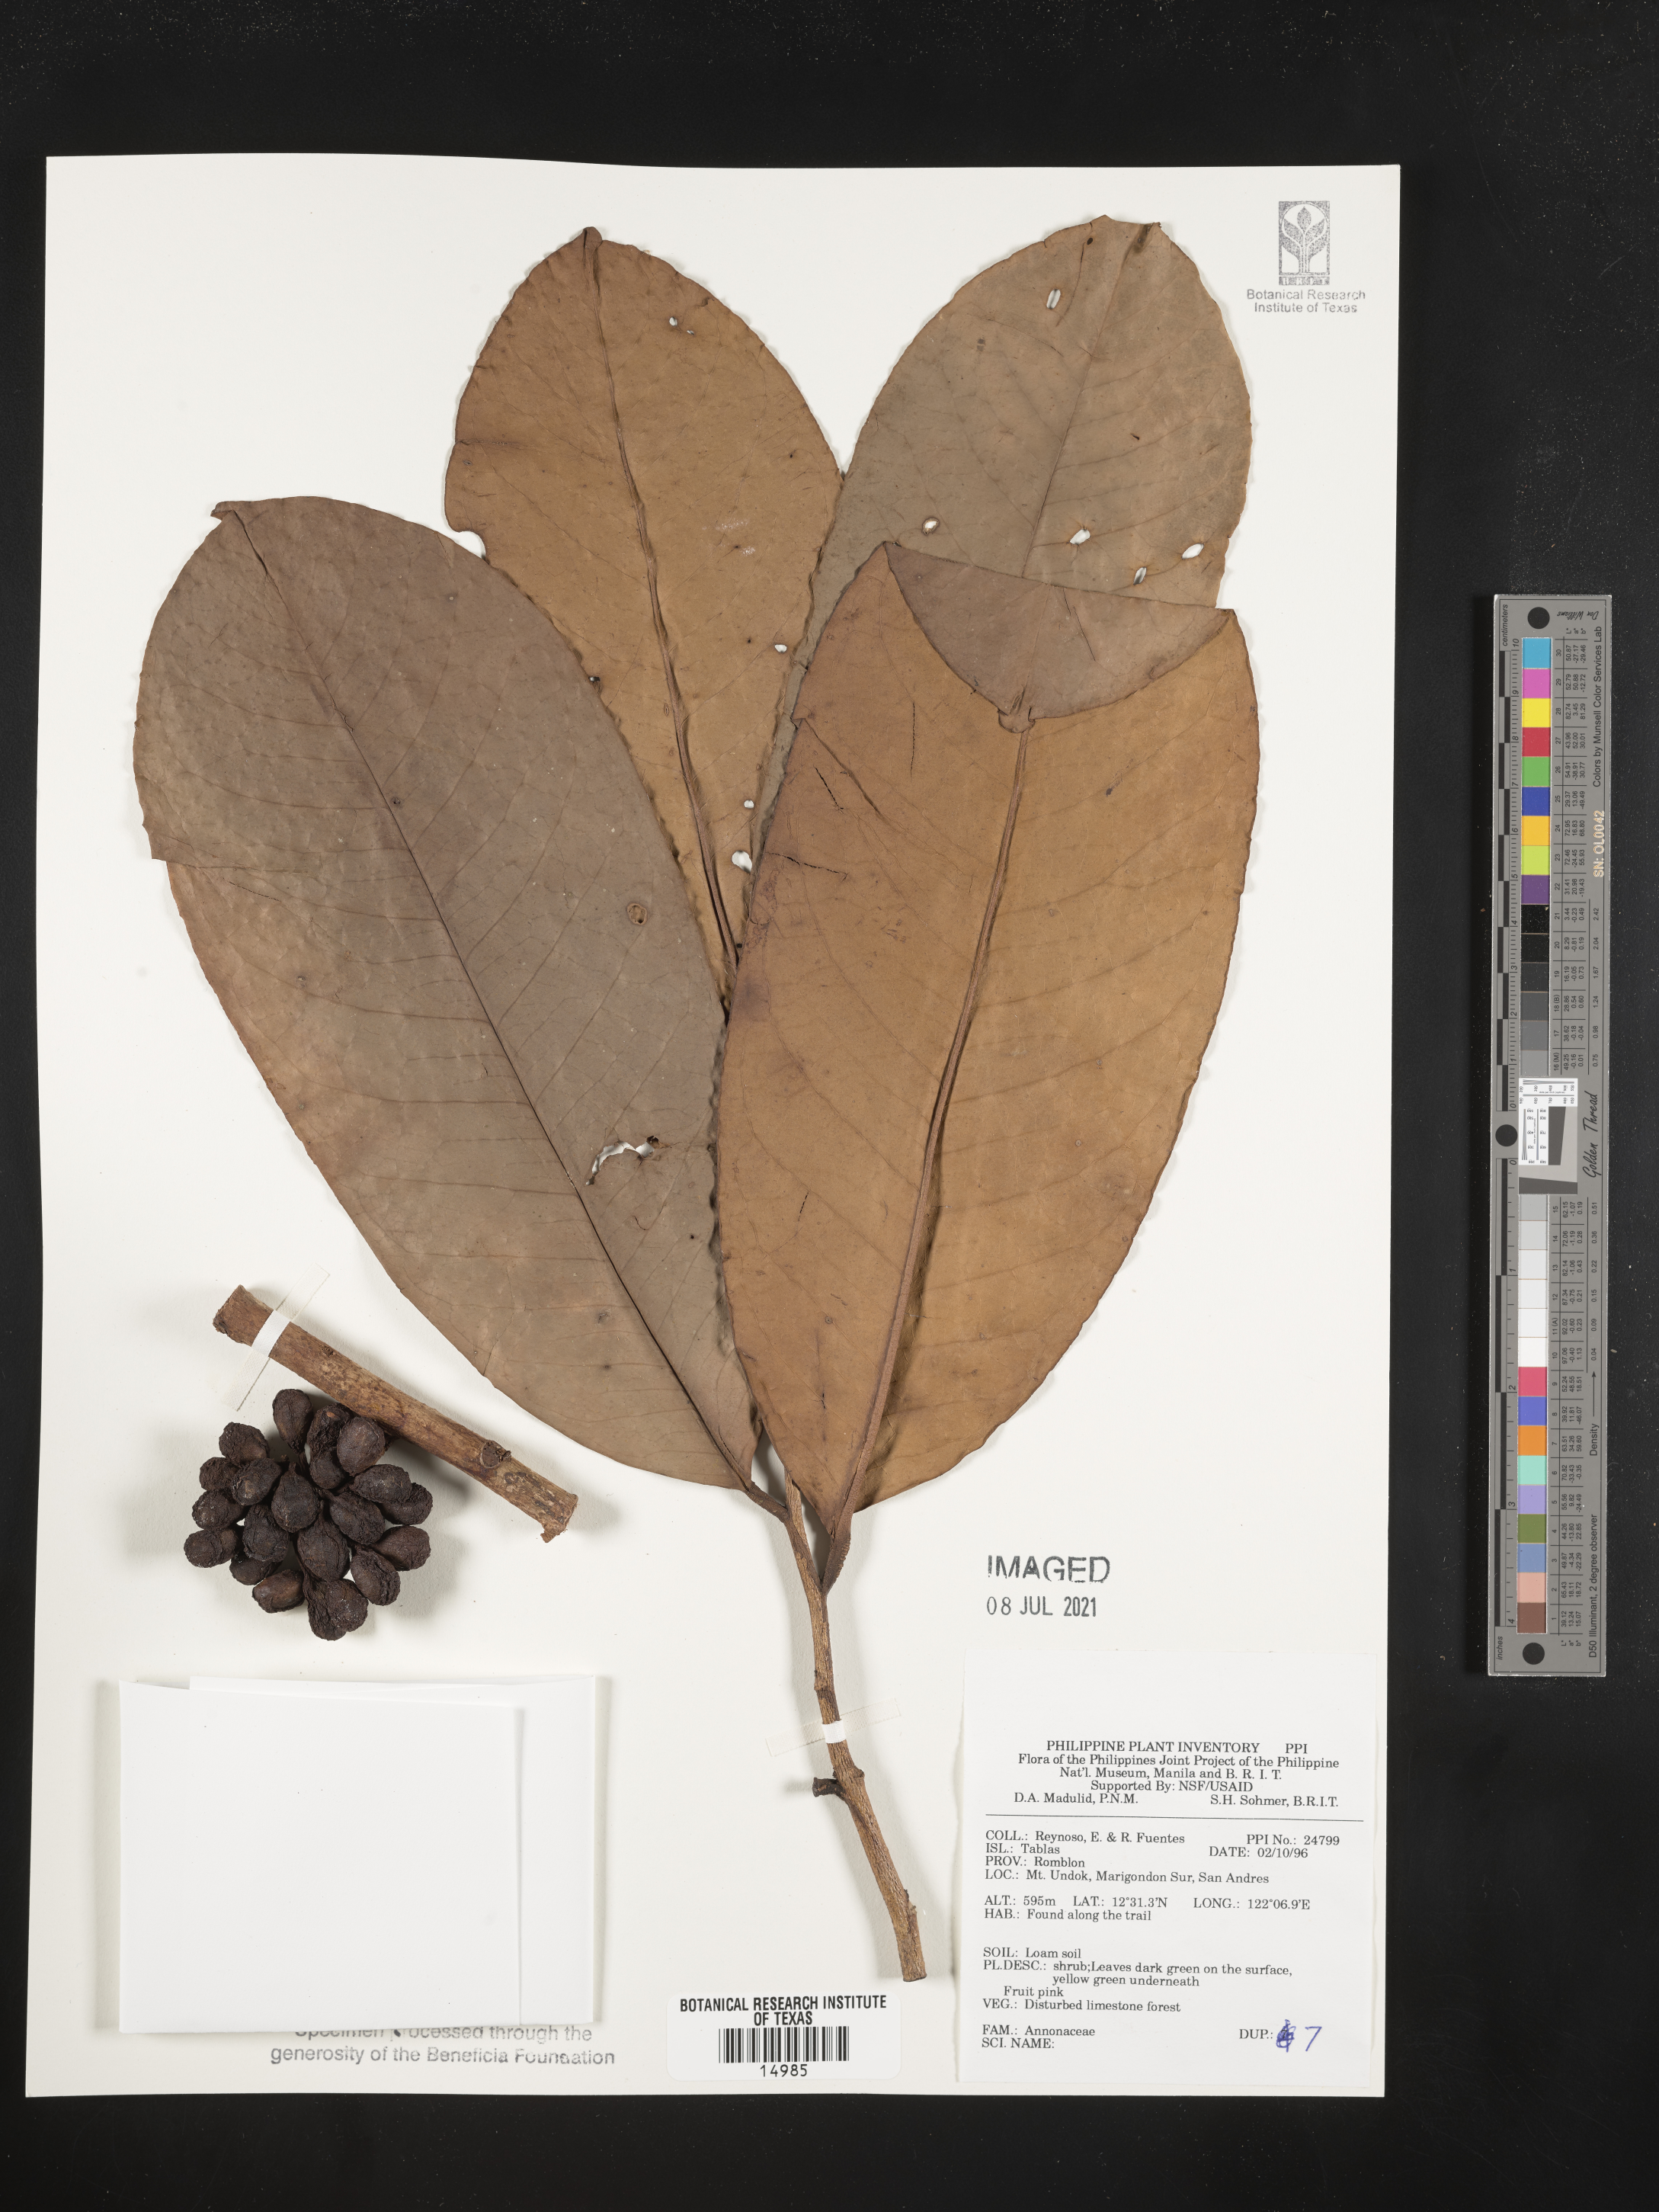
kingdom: Plantae
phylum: Tracheophyta
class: Magnoliopsida
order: Magnoliales
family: Annonaceae
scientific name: Annonaceae
